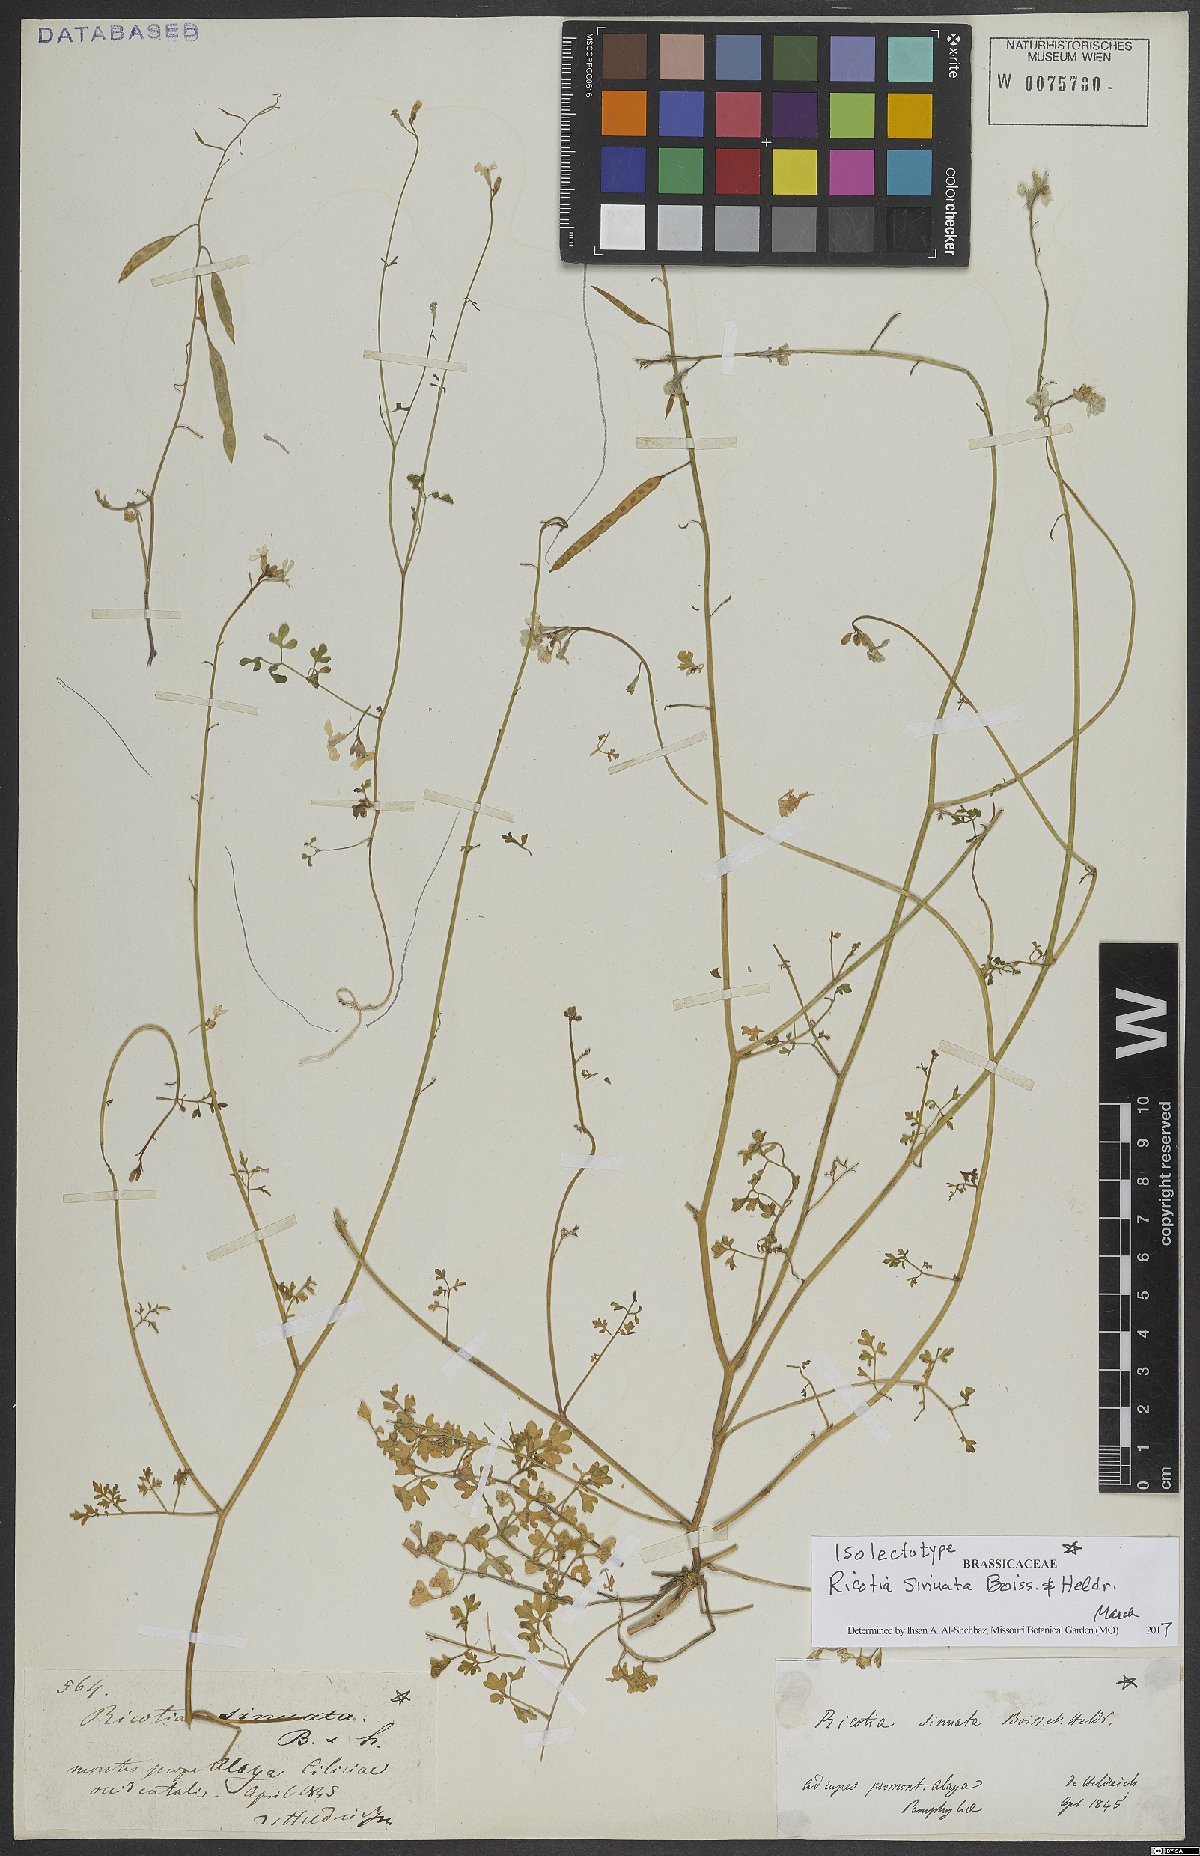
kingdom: Plantae
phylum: Tracheophyta
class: Magnoliopsida
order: Brassicales
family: Brassicaceae
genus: Ricotia
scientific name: Ricotia sinuata
